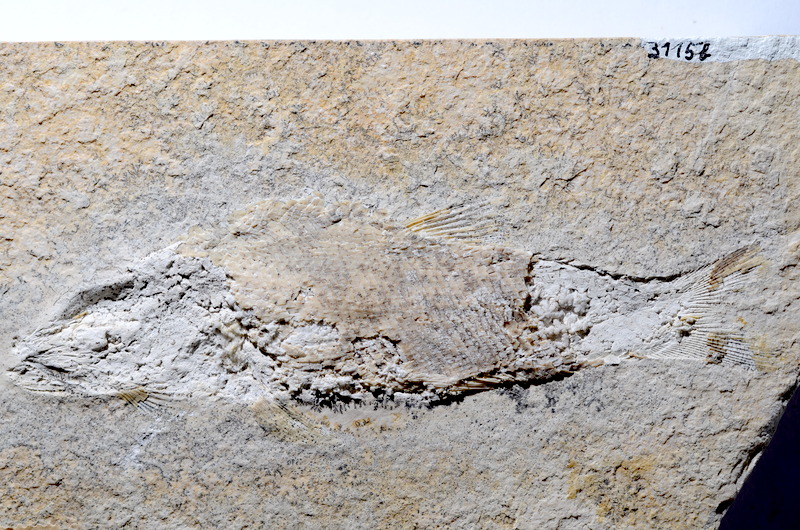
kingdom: Animalia
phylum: Chordata
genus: Zandtfuro
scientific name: Zandtfuro tischlingeri
